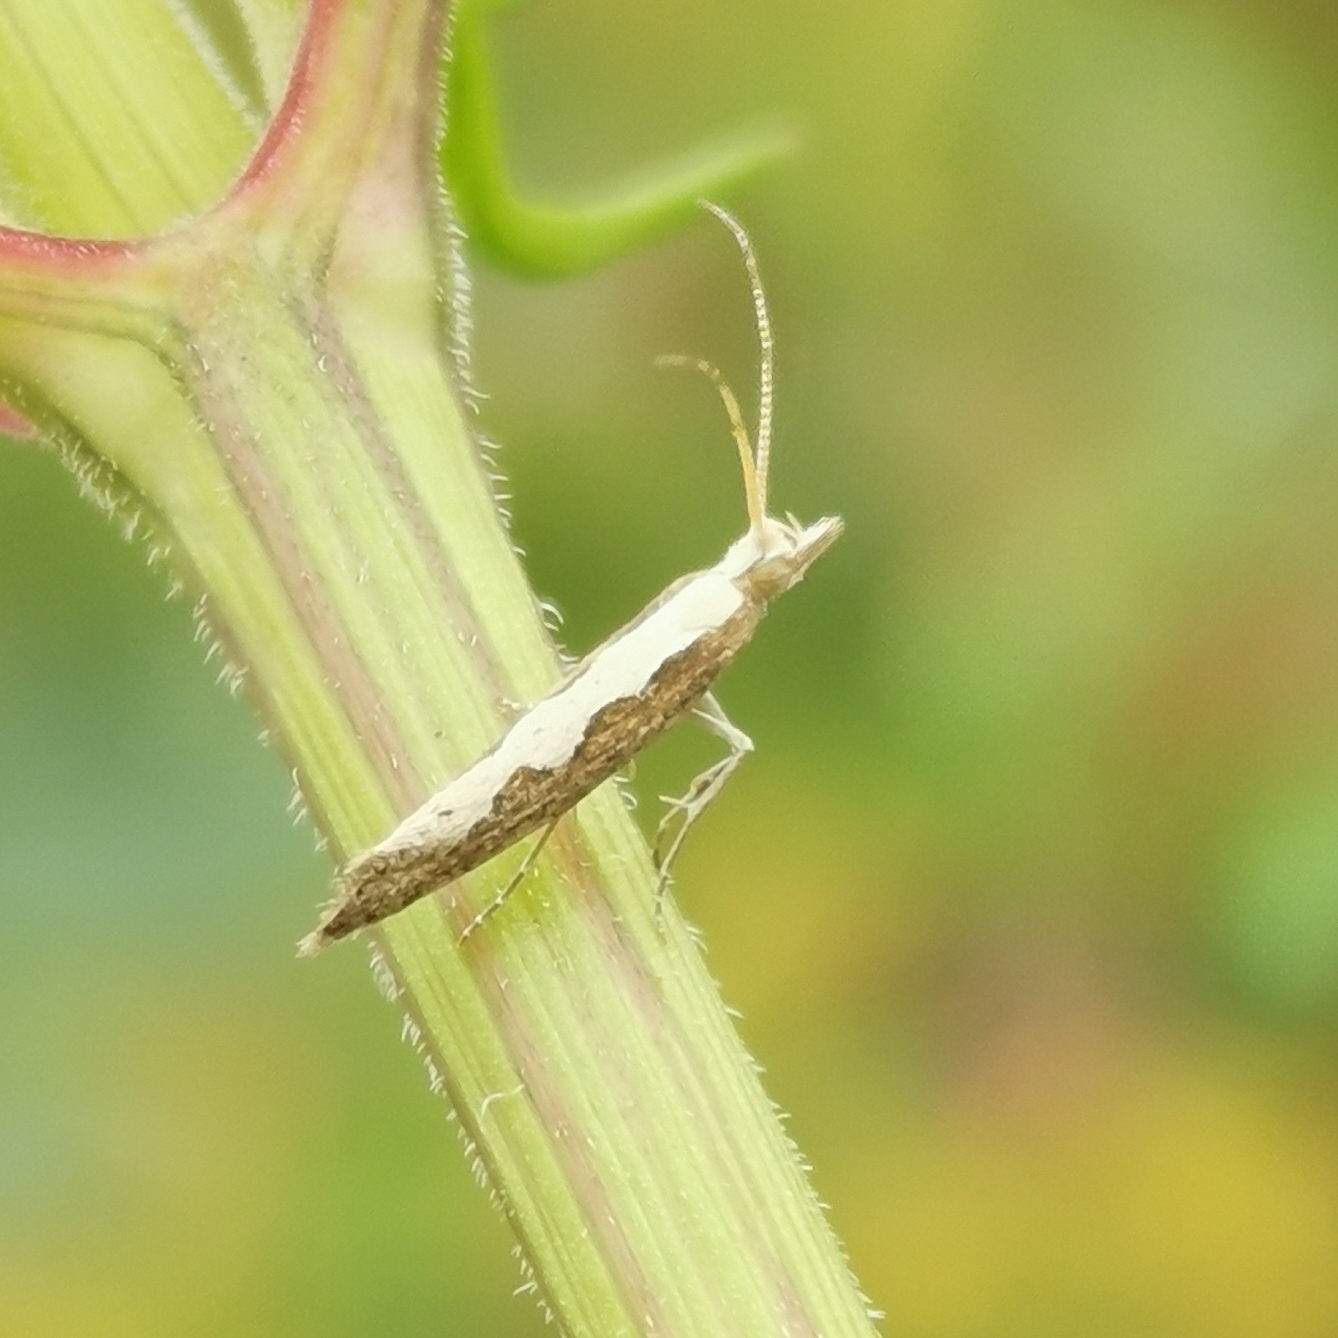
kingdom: Animalia
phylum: Arthropoda
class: Insecta
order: Lepidoptera
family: Plutellidae
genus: Plutella
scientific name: Plutella xylostella
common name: Kålmøl
